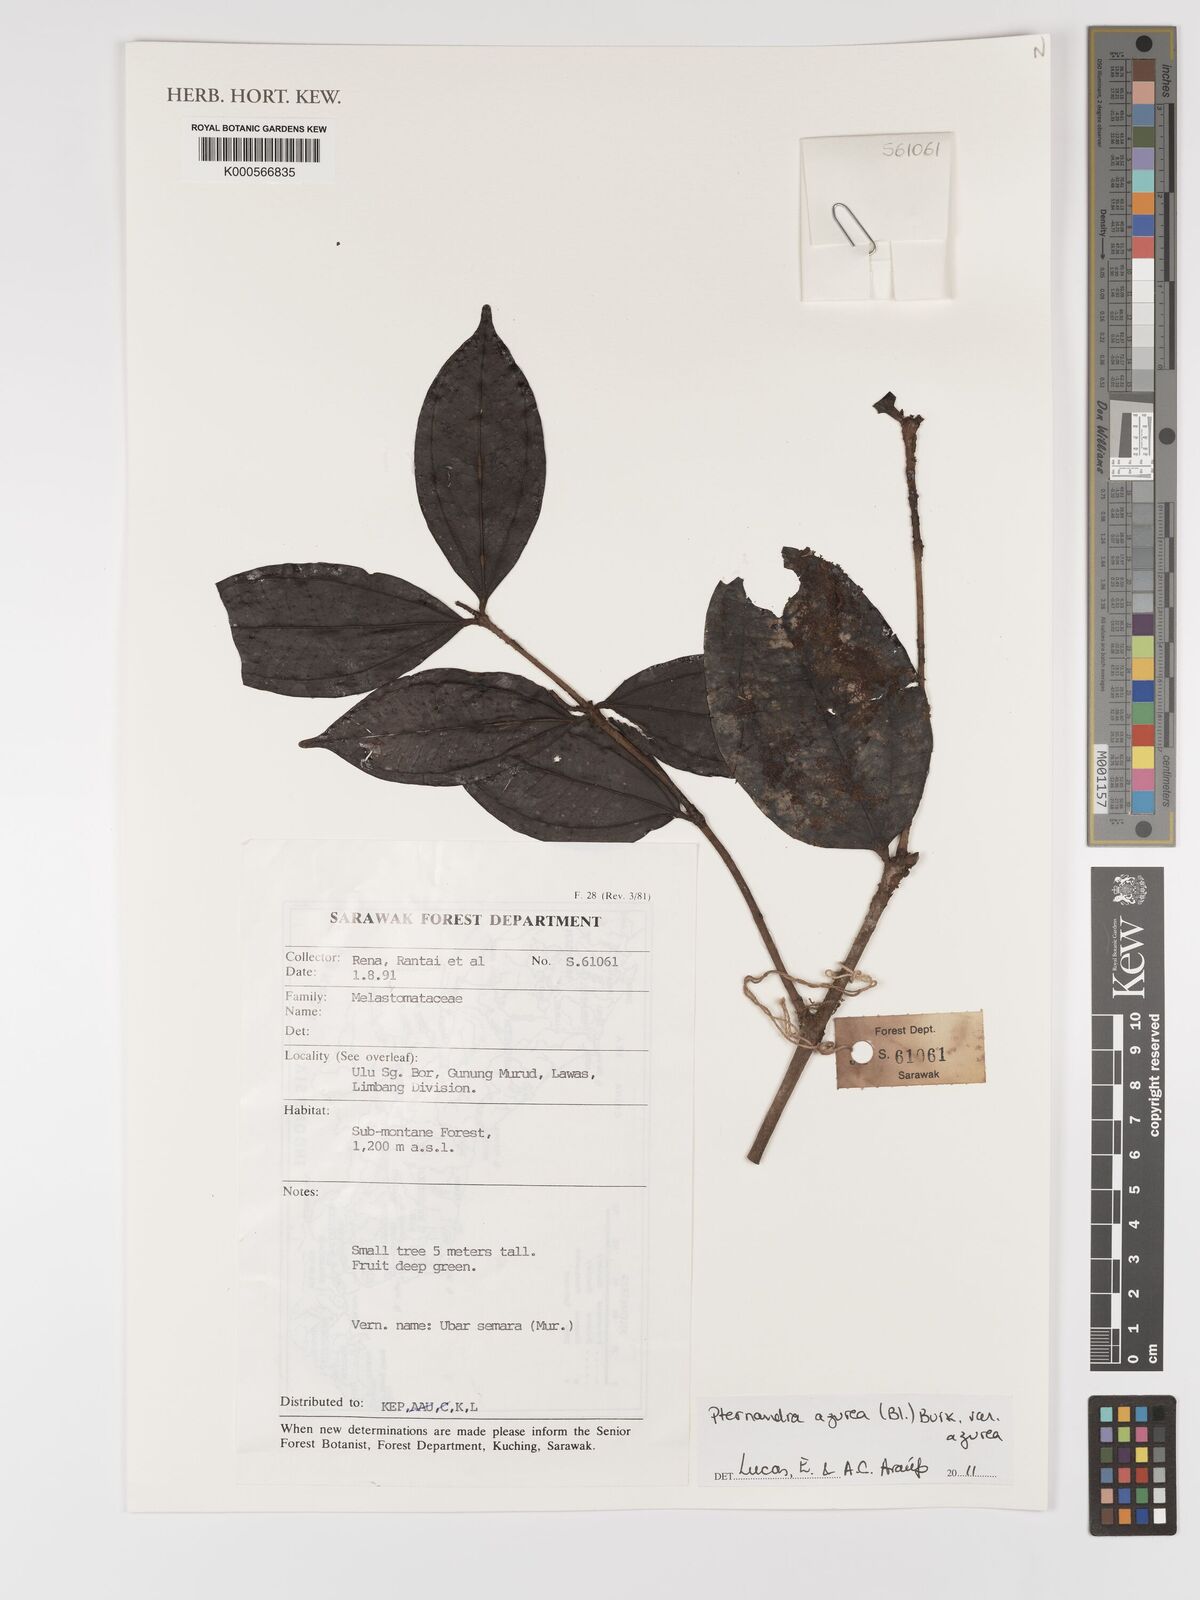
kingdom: Plantae
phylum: Tracheophyta
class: Magnoliopsida
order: Myrtales
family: Melastomataceae
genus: Pternandra
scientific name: Pternandra azurea
